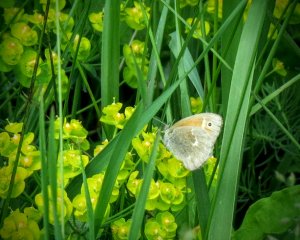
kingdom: Animalia
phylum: Arthropoda
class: Insecta
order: Lepidoptera
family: Nymphalidae
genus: Coenonympha
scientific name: Coenonympha tullia
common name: Large Heath
